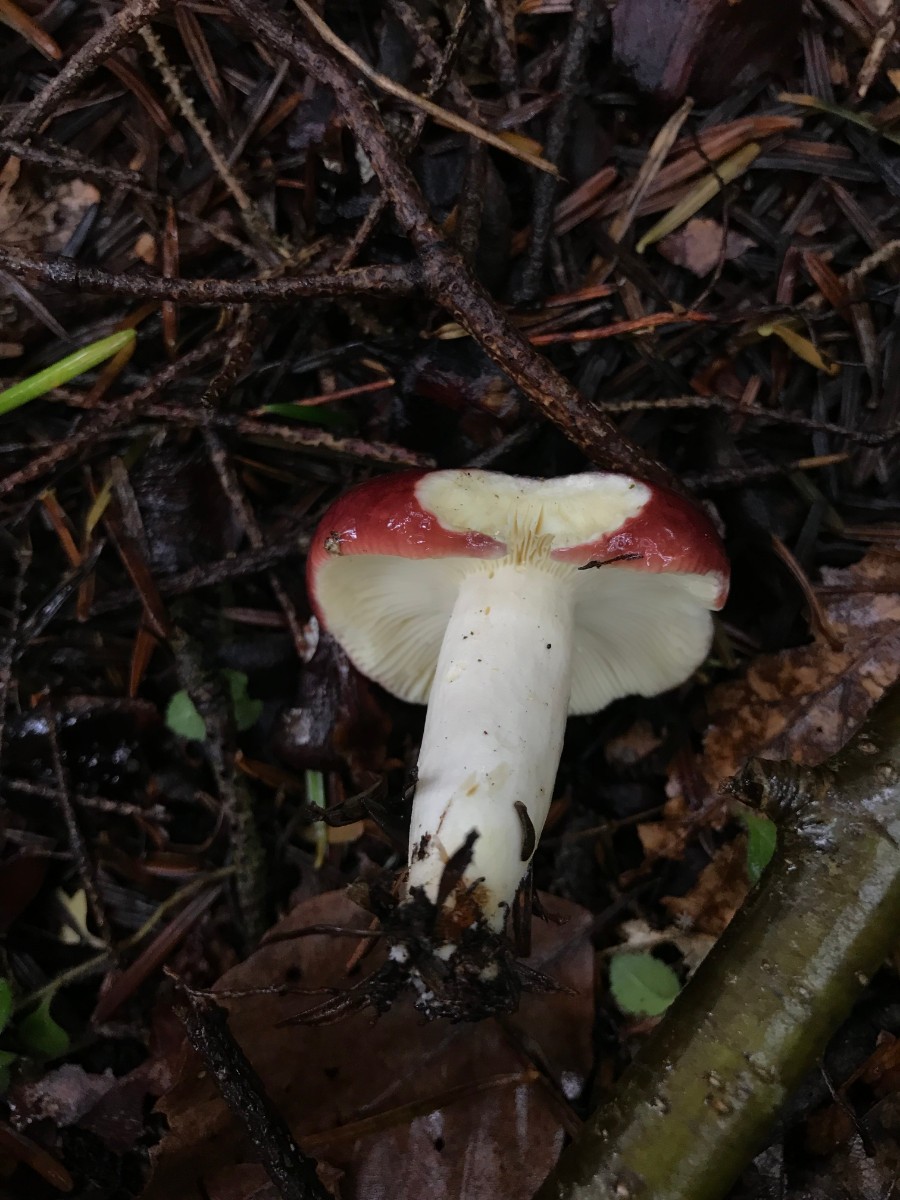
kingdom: Fungi
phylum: Basidiomycota
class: Agaricomycetes
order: Russulales
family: Russulaceae
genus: Russula
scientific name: Russula
